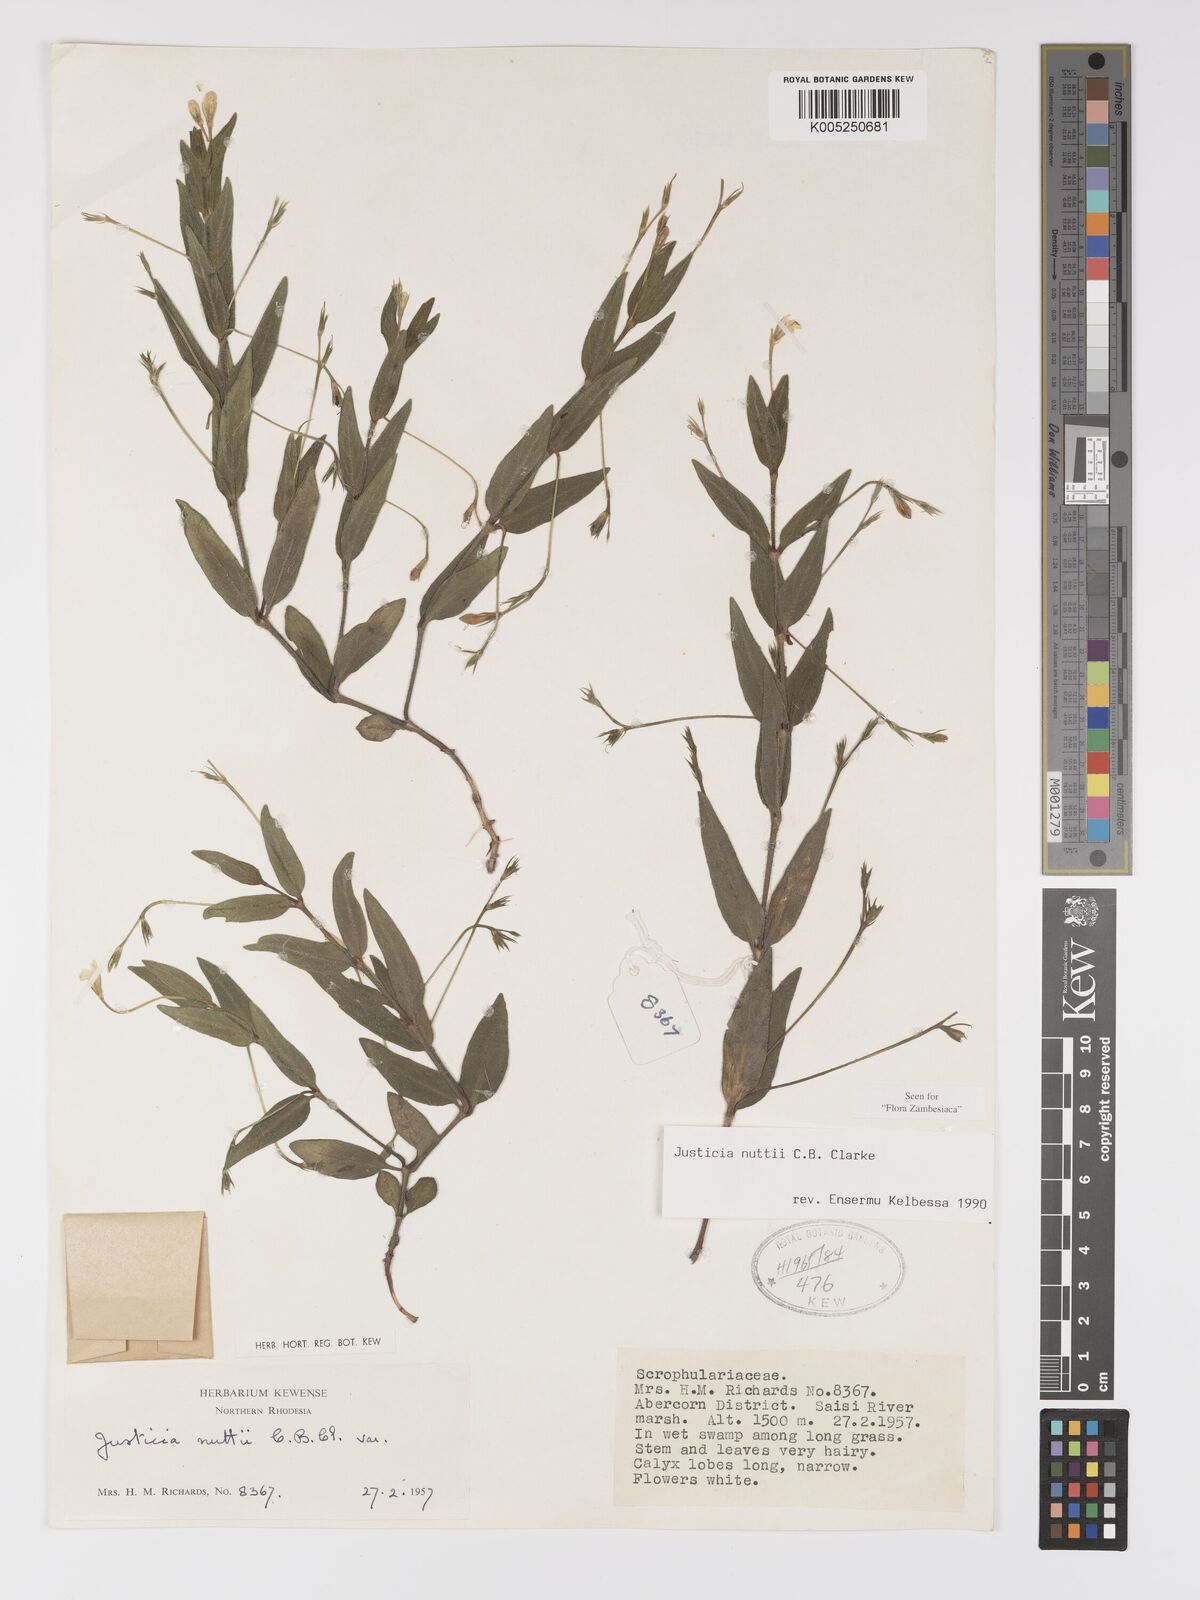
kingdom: Plantae
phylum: Tracheophyta
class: Magnoliopsida
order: Lamiales
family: Acanthaceae
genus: Justicia
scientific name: Justicia nuttii
